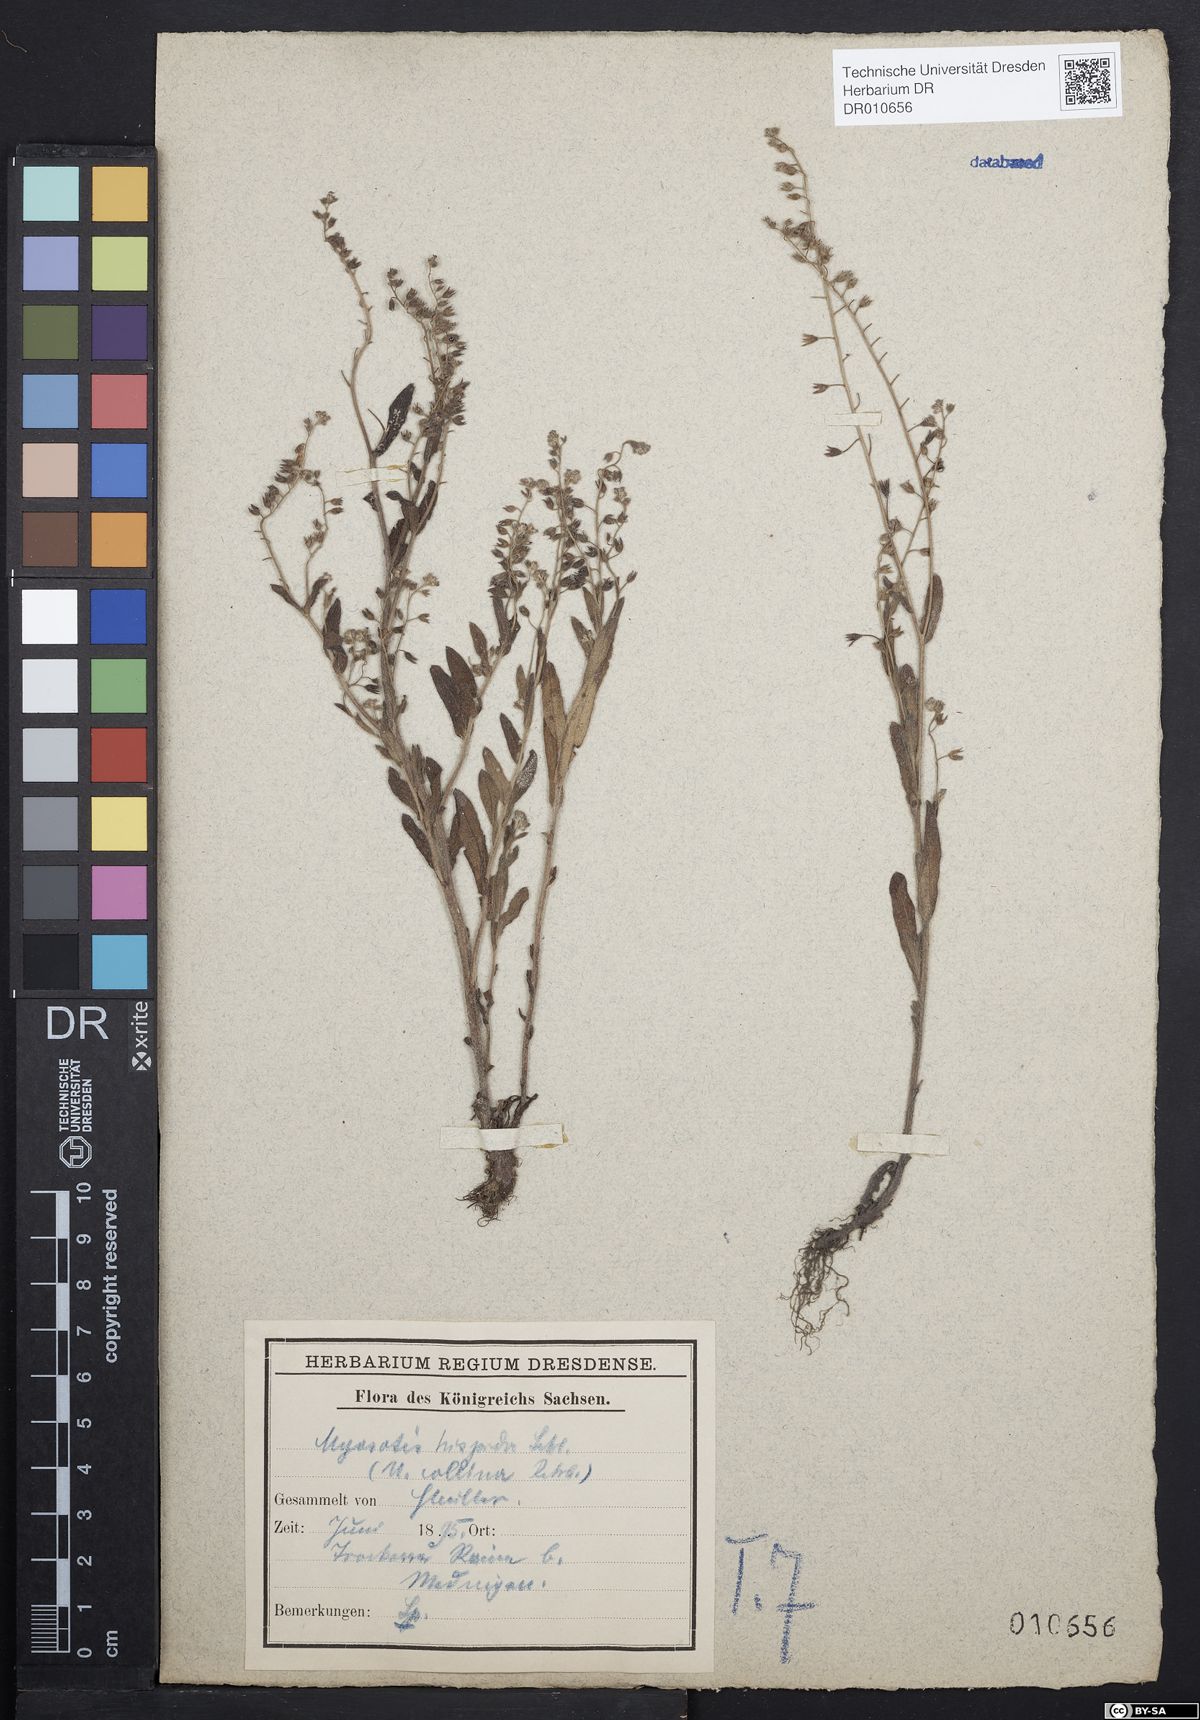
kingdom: Plantae
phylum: Tracheophyta
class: Magnoliopsida
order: Boraginales
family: Boraginaceae
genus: Myosotis
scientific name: Myosotis ramosissima
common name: Early forget-me-not
